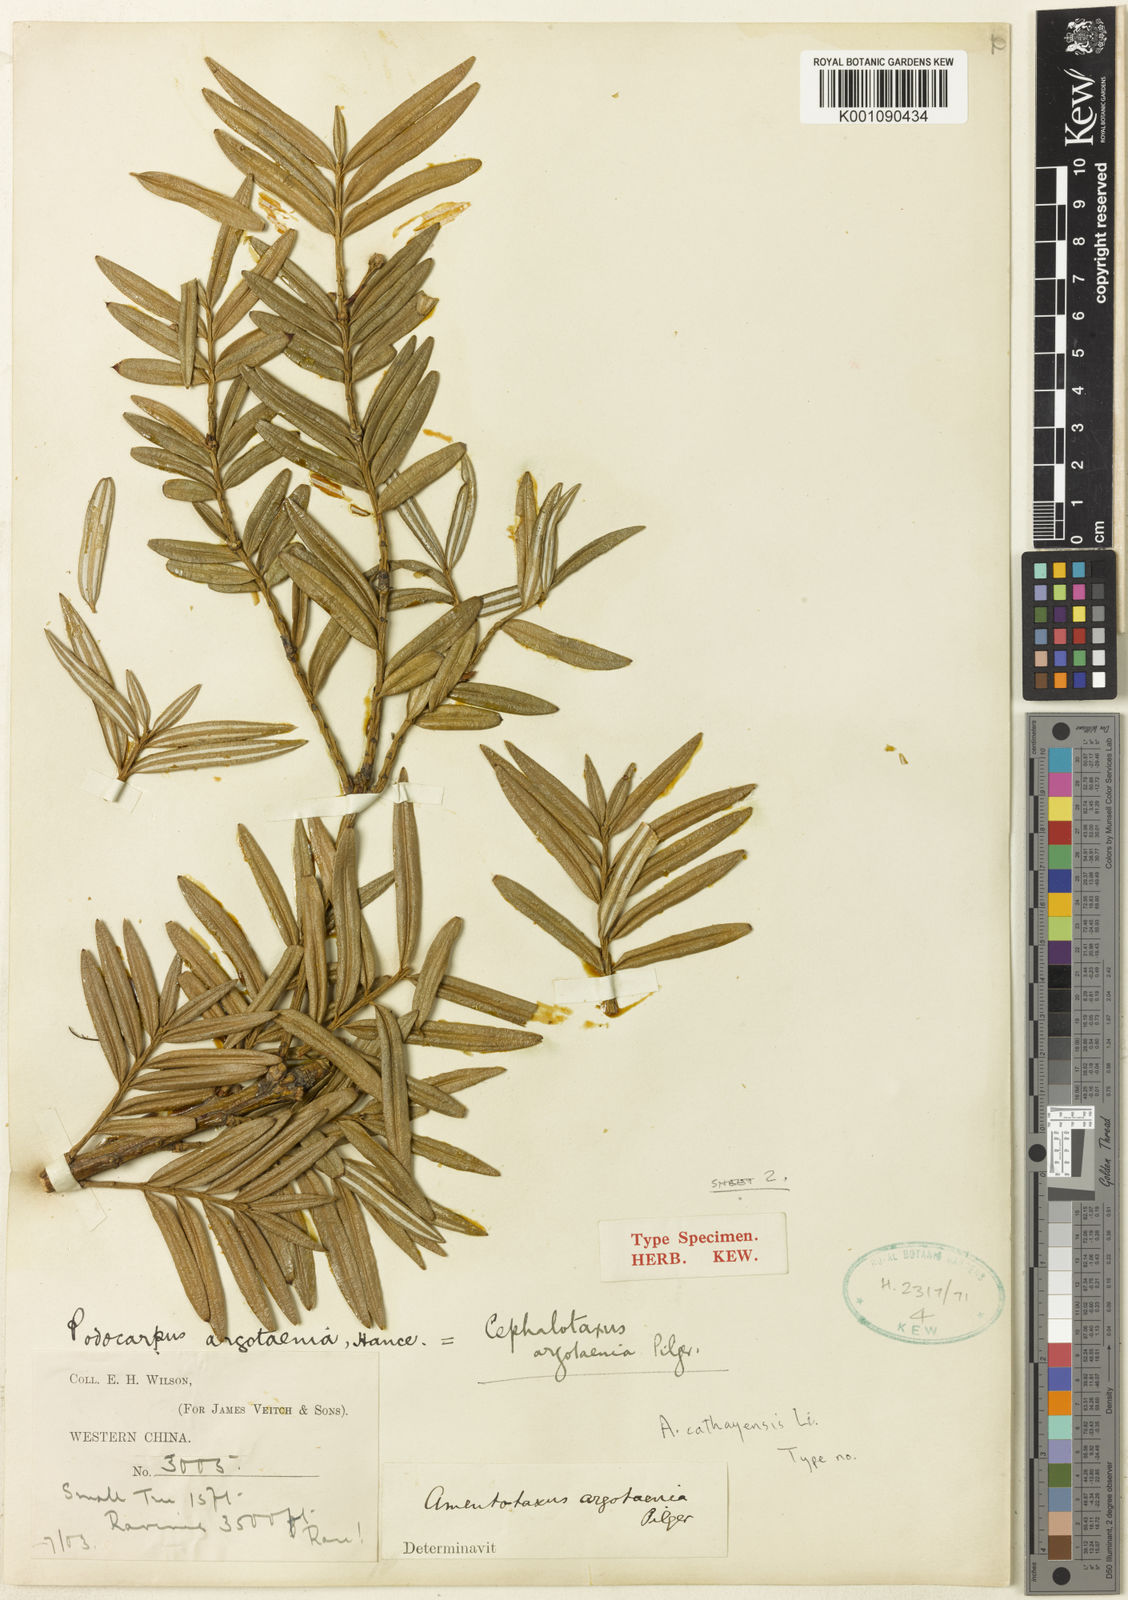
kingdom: Plantae
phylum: Tracheophyta
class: Pinopsida
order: Pinales
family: Taxaceae
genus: Amentotaxus
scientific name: Amentotaxus argotaenia
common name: Catkin yew
